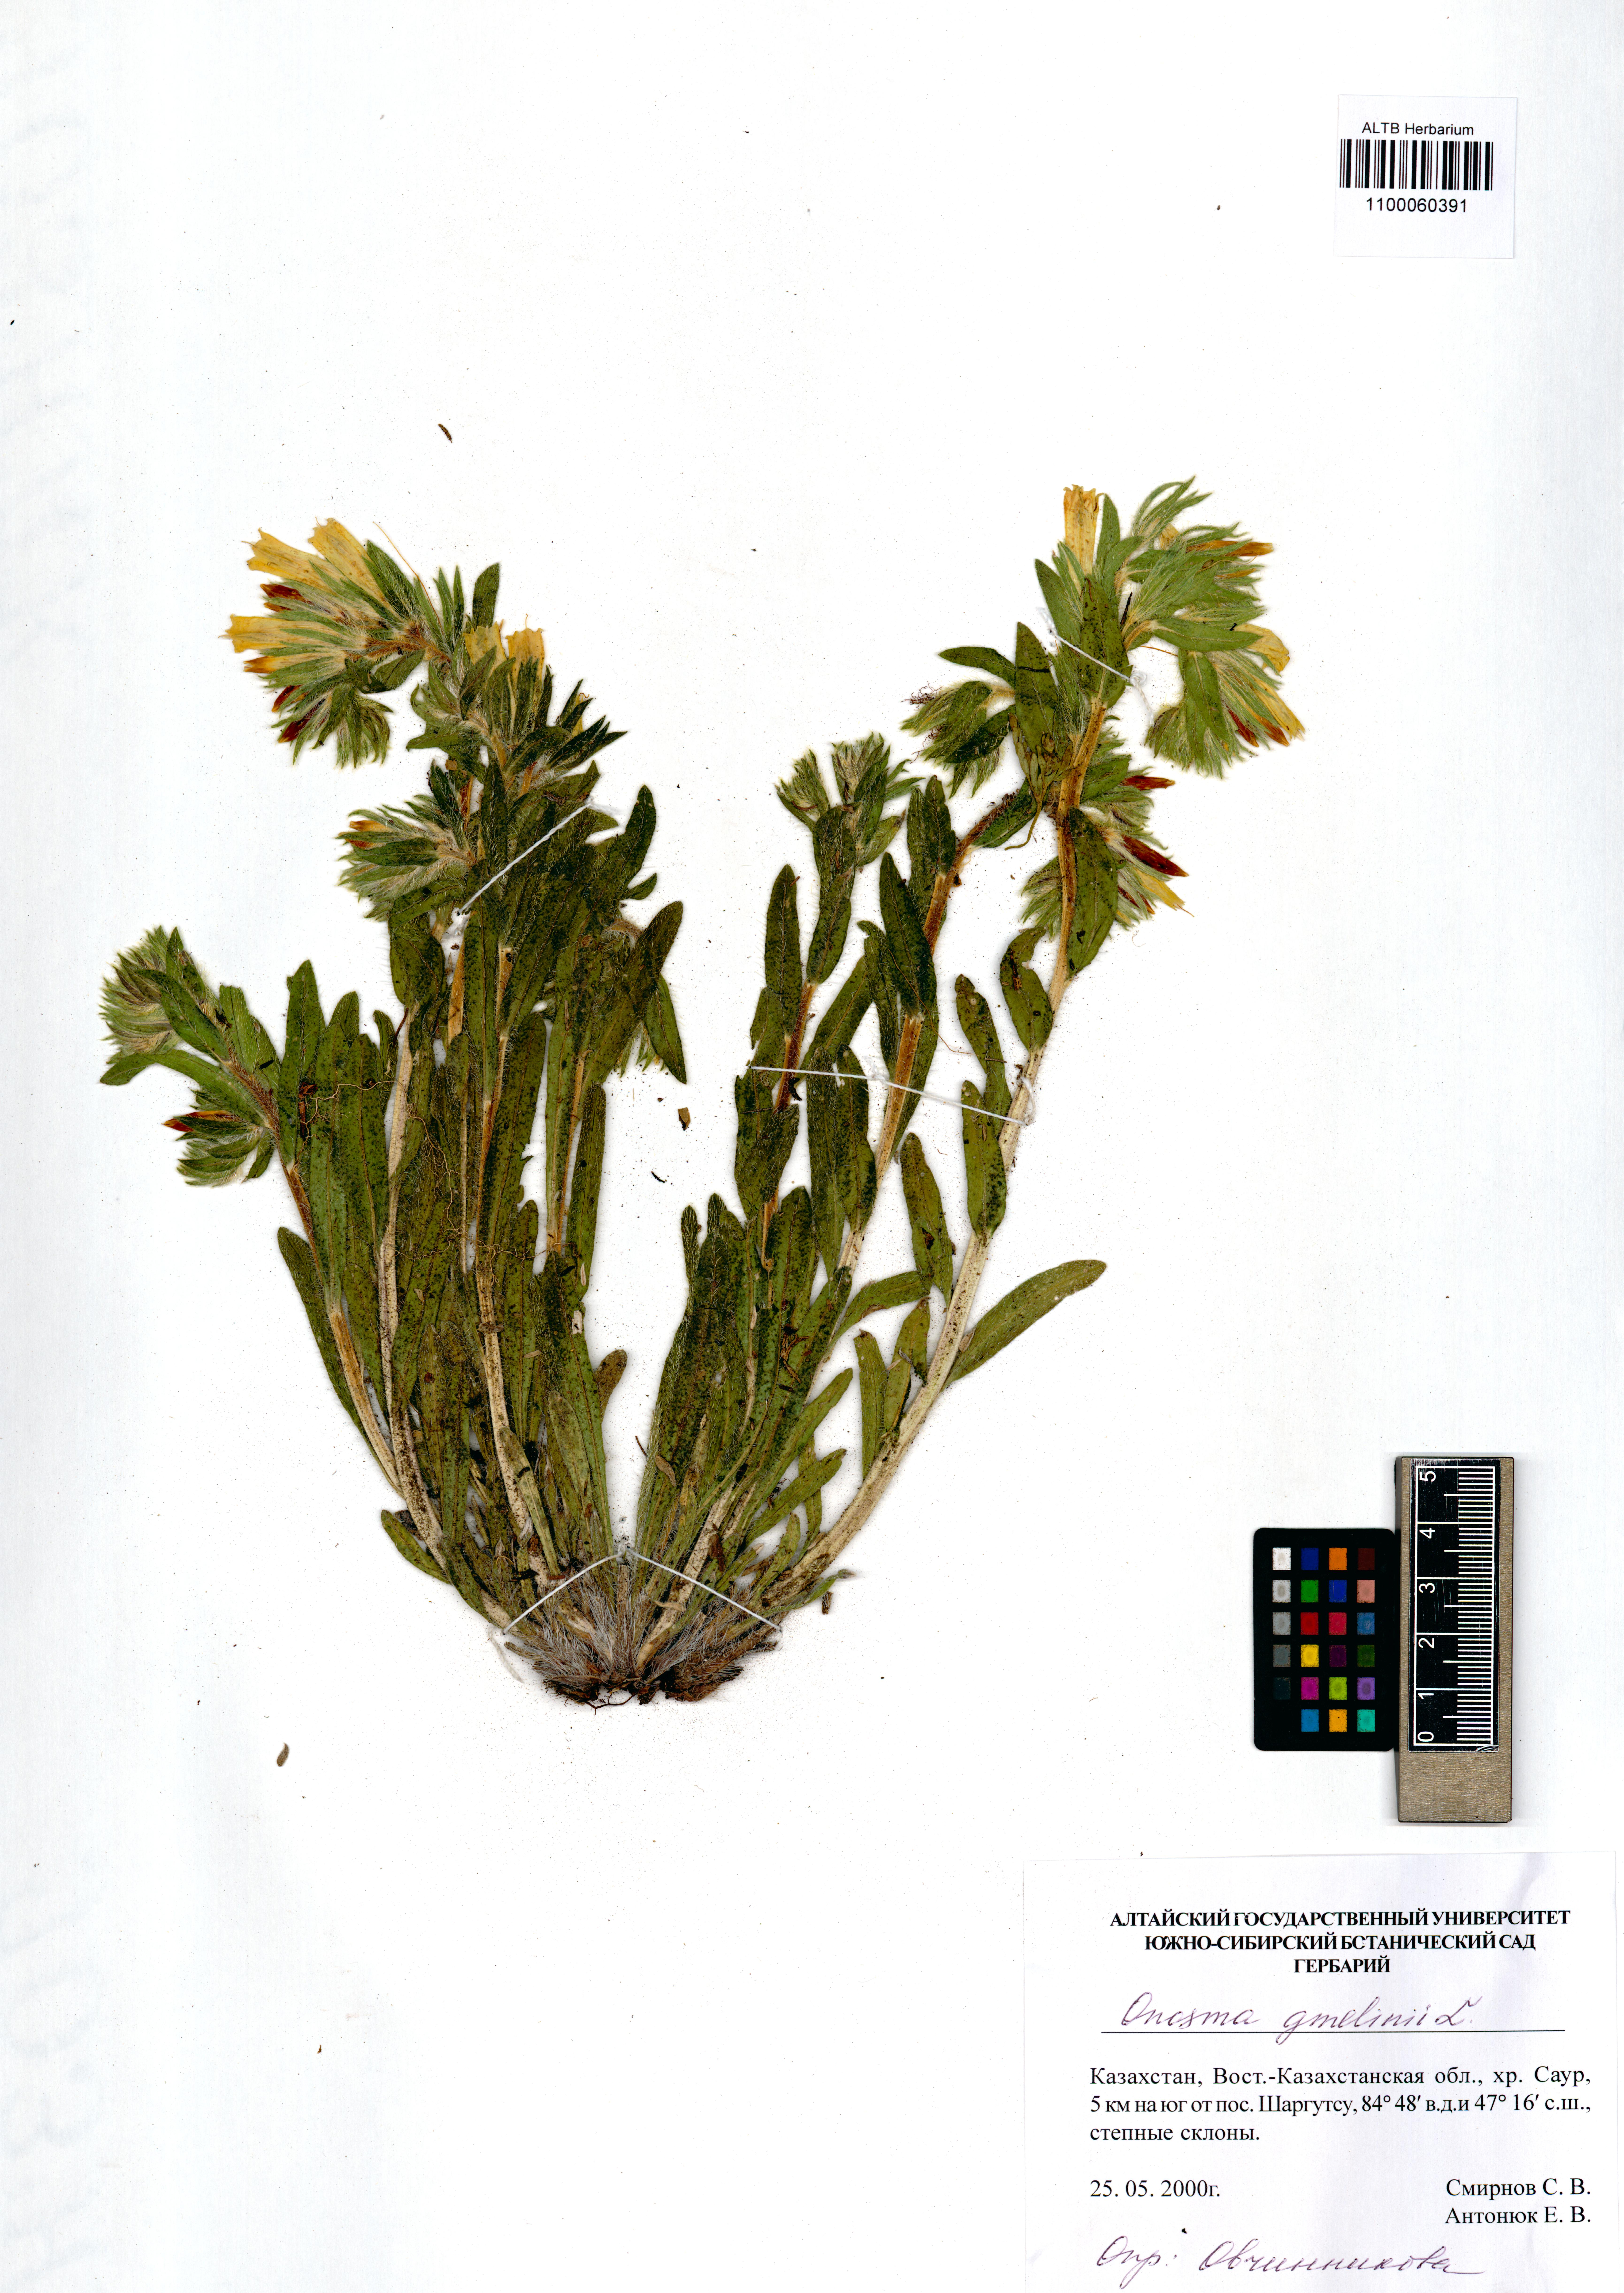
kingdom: Plantae
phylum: Tracheophyta
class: Magnoliopsida
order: Boraginales
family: Boraginaceae
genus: Onosma
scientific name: Onosma gmelinii
